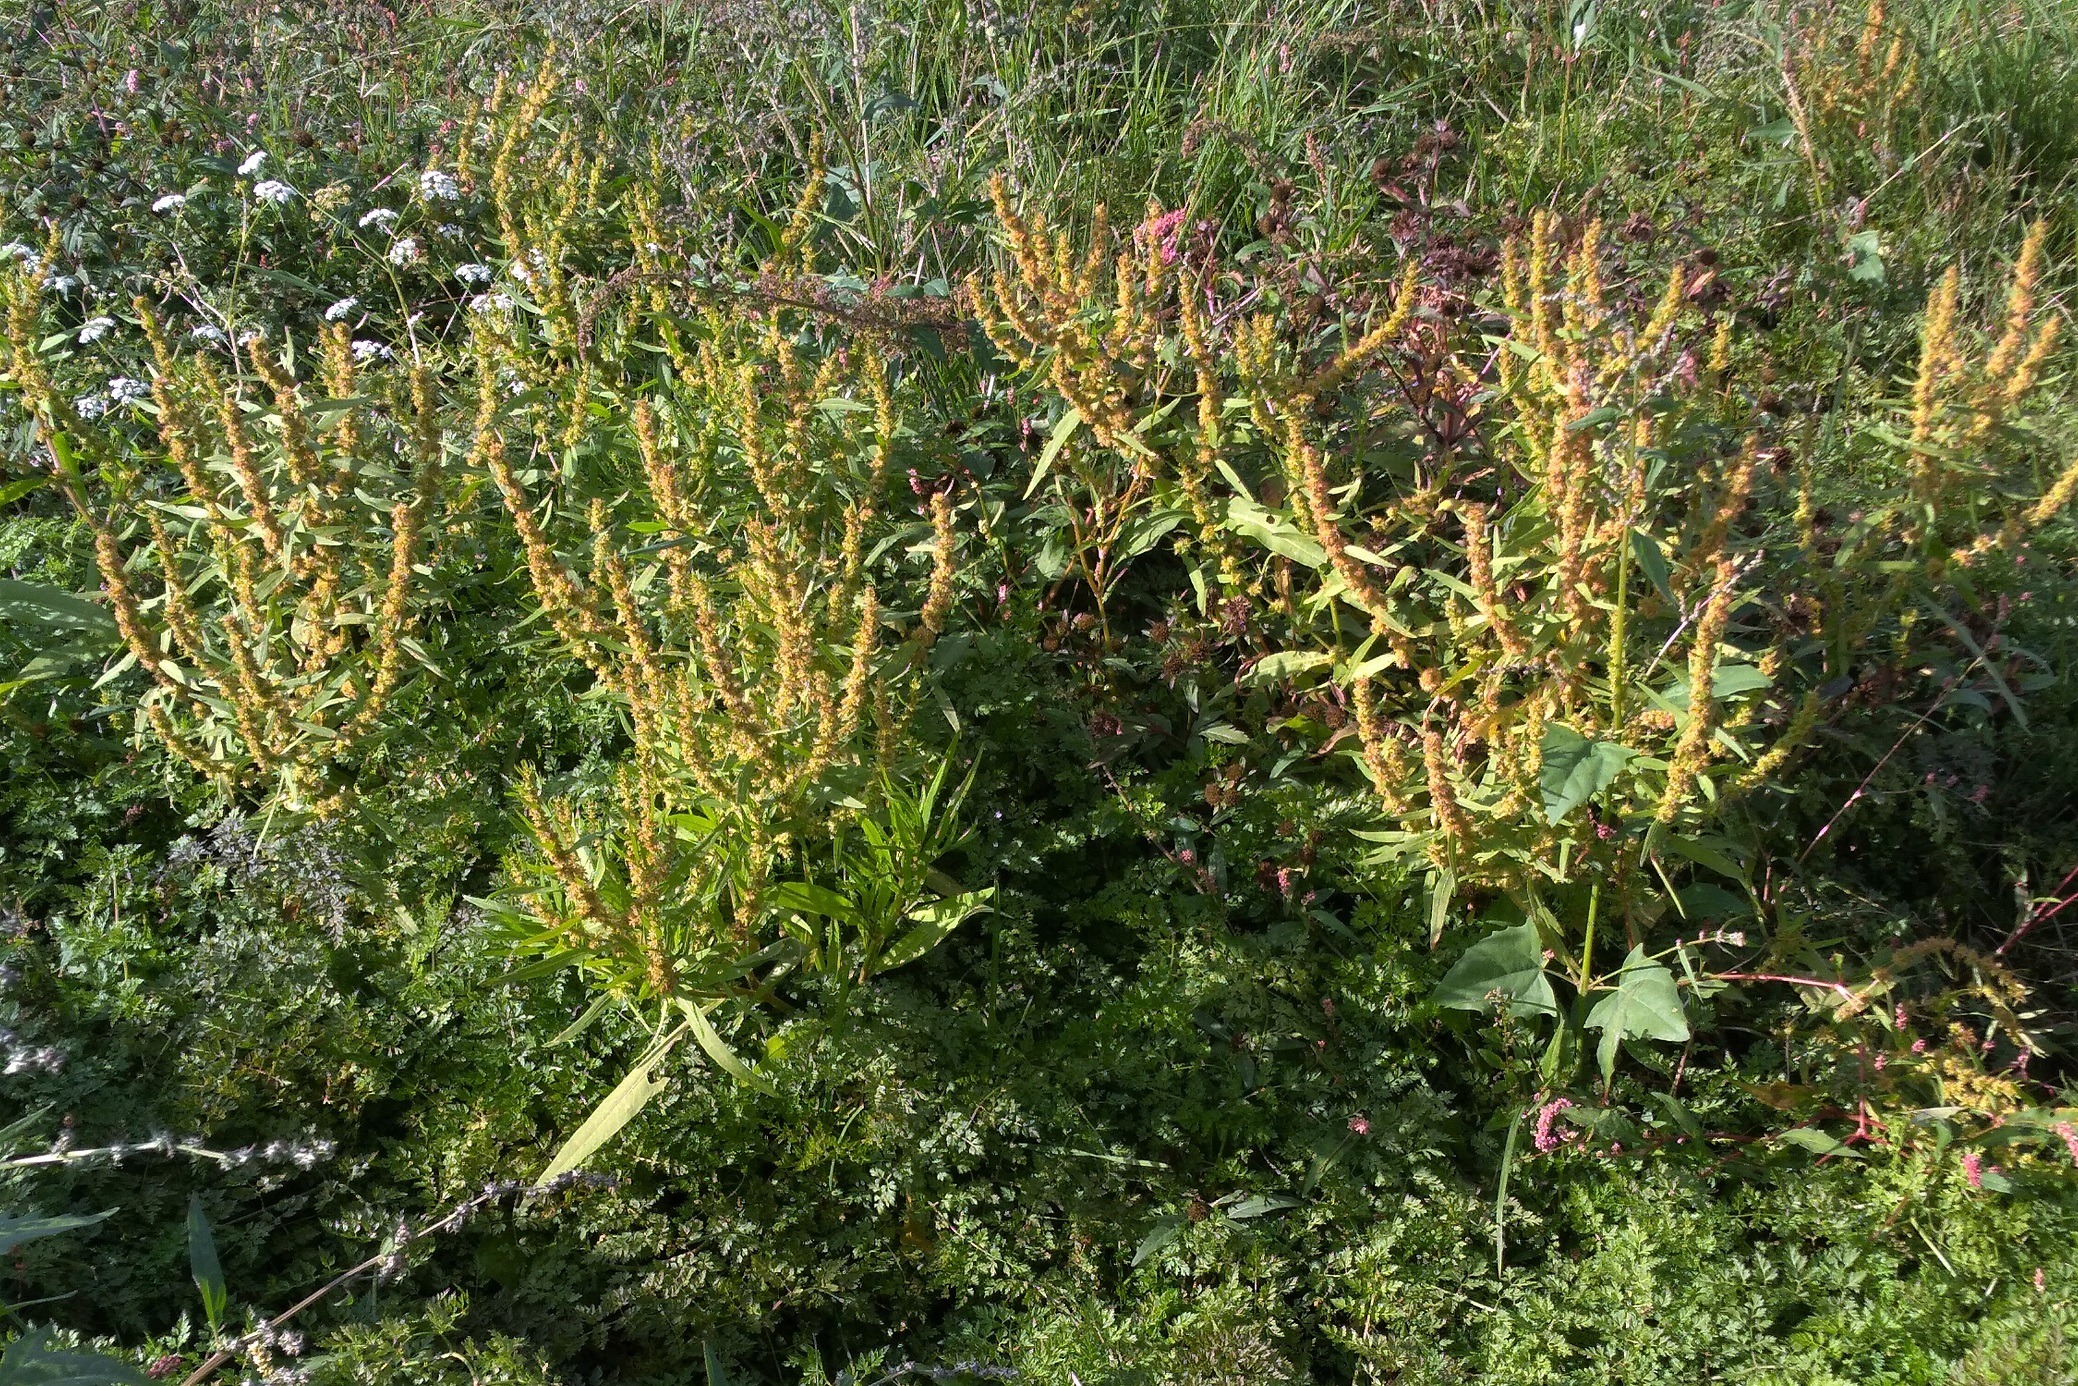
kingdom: Plantae
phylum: Tracheophyta
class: Magnoliopsida
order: Caryophyllales
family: Polygonaceae
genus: Rumex
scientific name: Rumex maritimus
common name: Strand-skræppe
